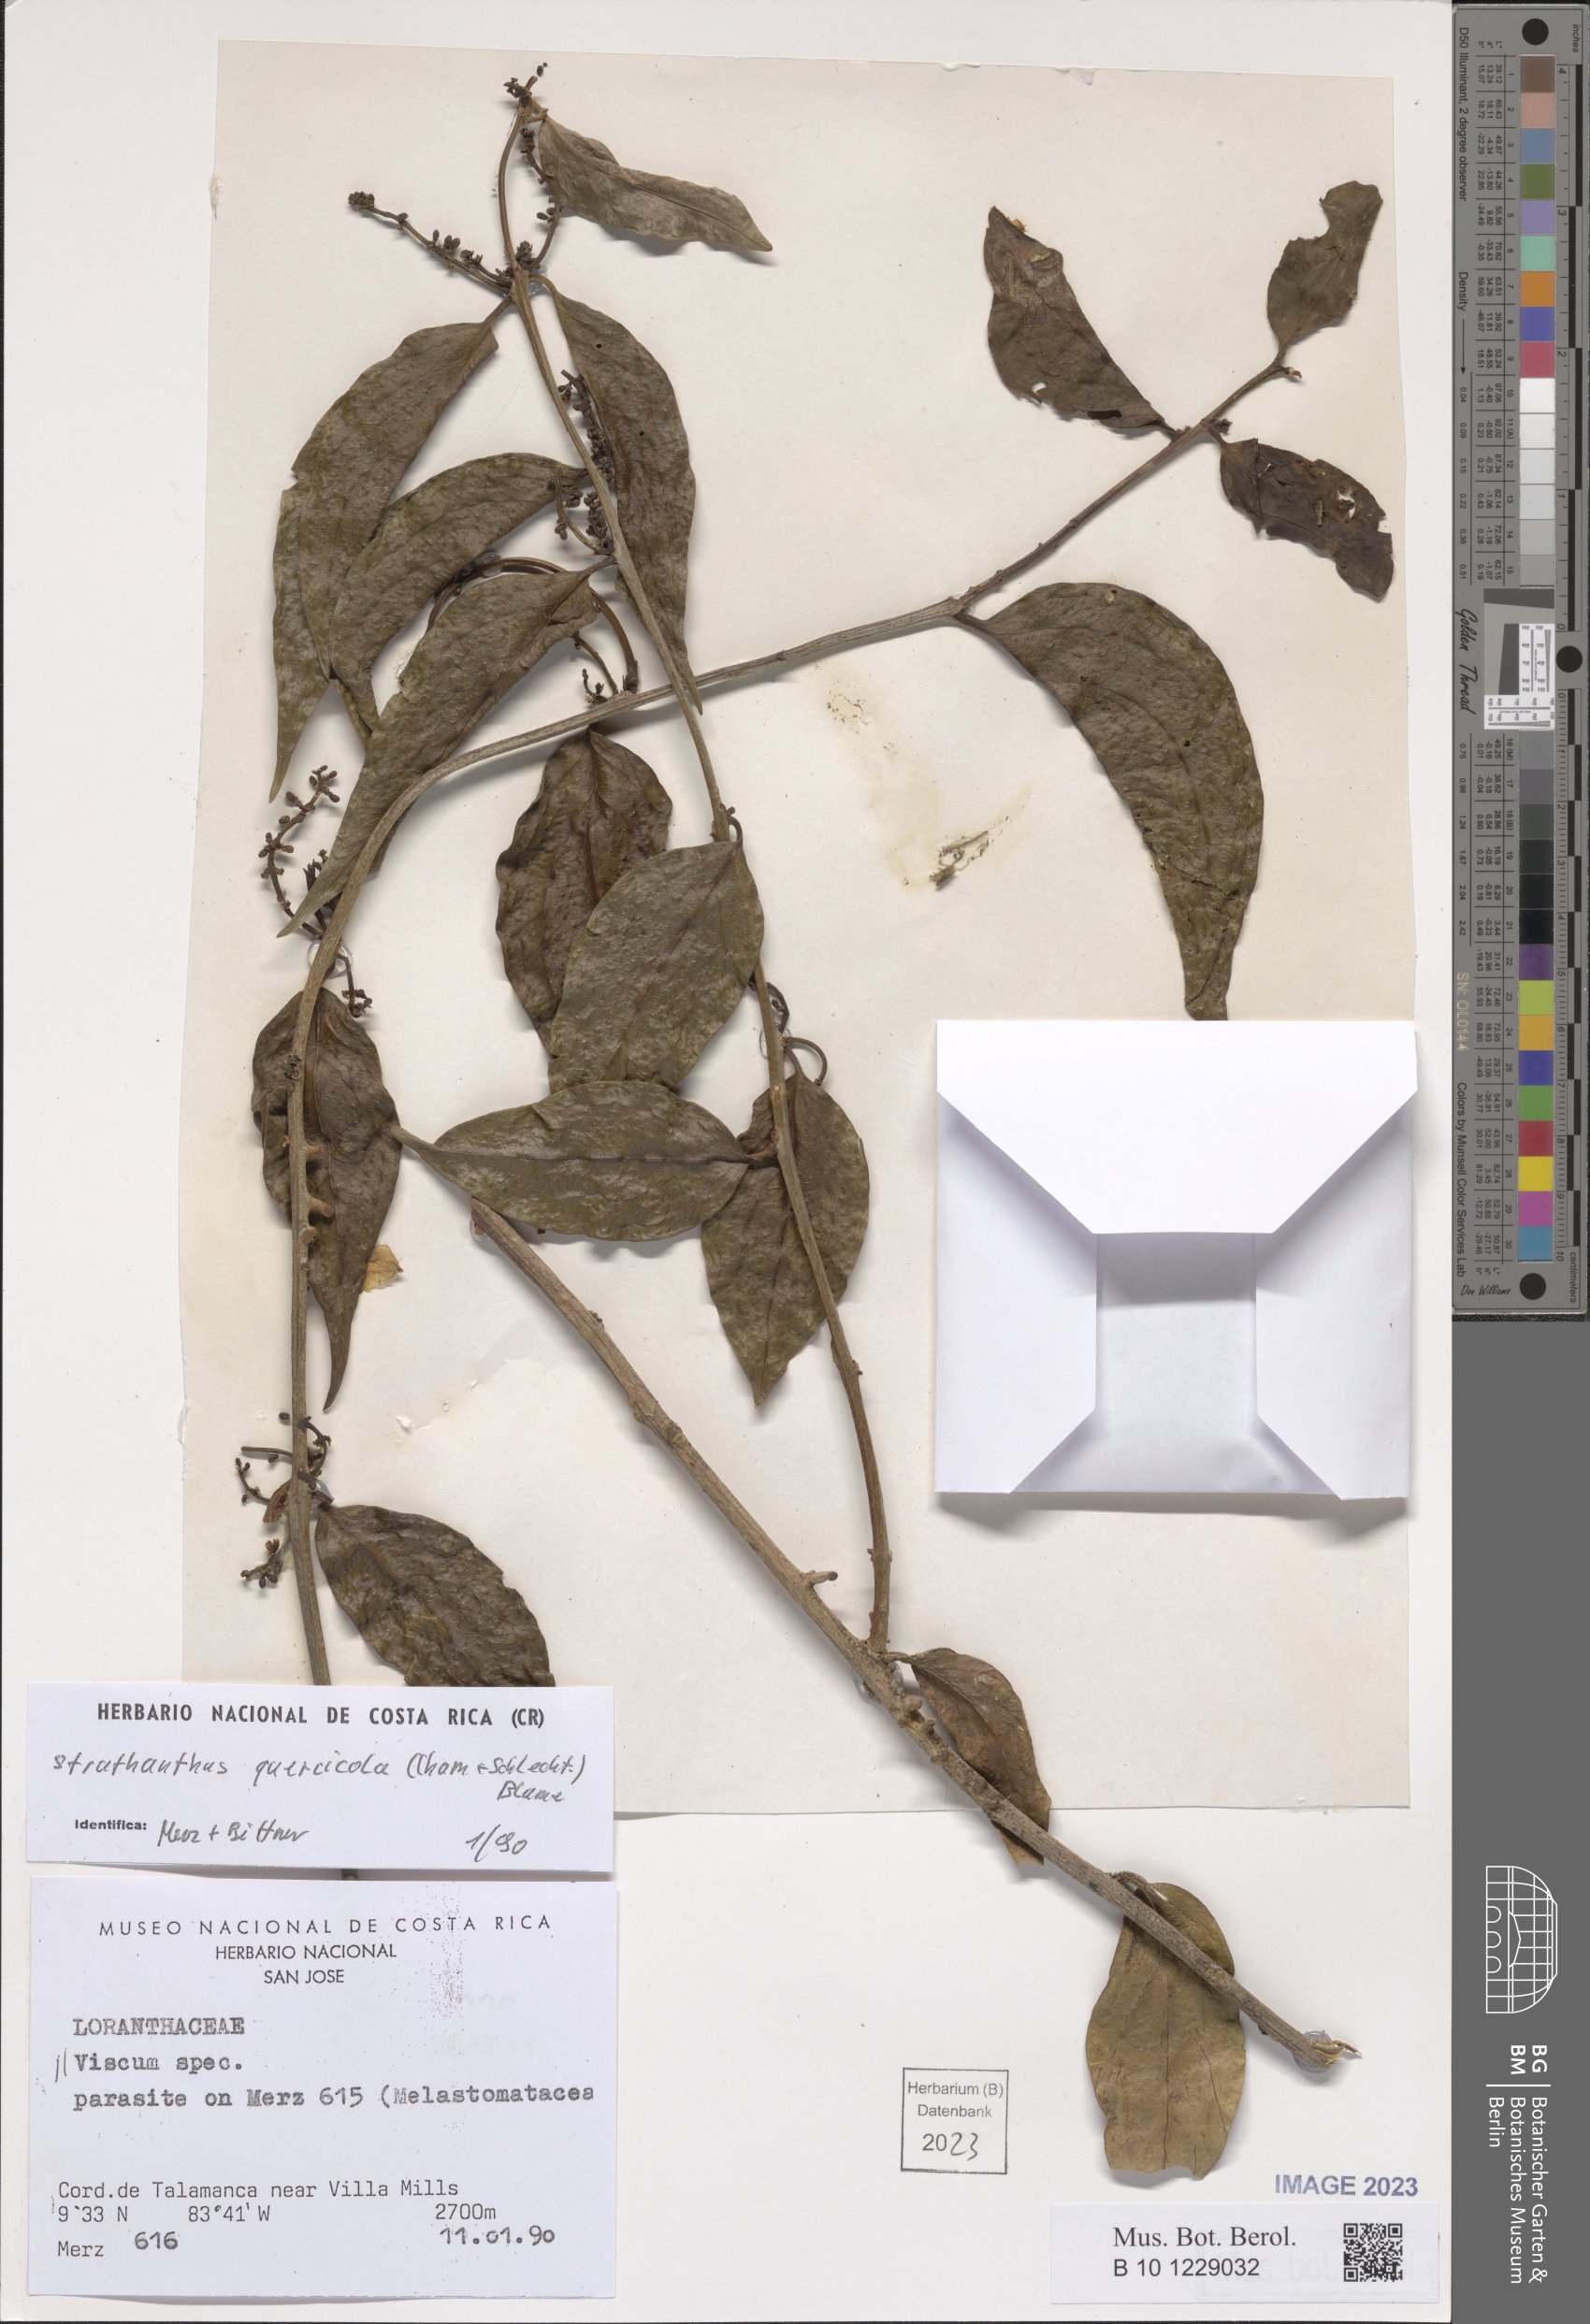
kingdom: Plantae
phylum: Tracheophyta
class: Magnoliopsida
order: Santalales
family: Loranthaceae
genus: Struthanthus
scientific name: Struthanthus quercicola
